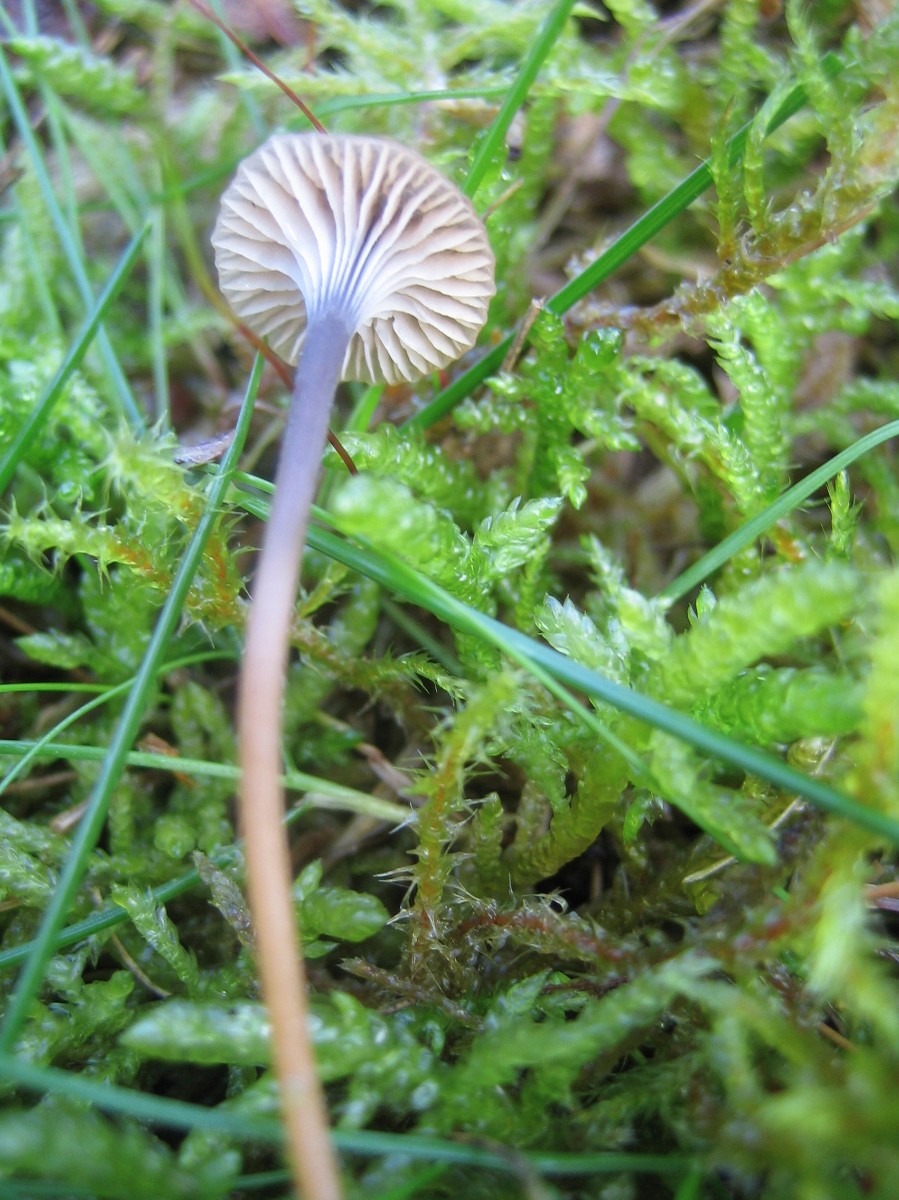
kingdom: Fungi
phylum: Basidiomycota
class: Agaricomycetes
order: Hymenochaetales
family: Rickenellaceae
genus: Rickenella
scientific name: Rickenella swartzii
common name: finstokket mosnavlehat
